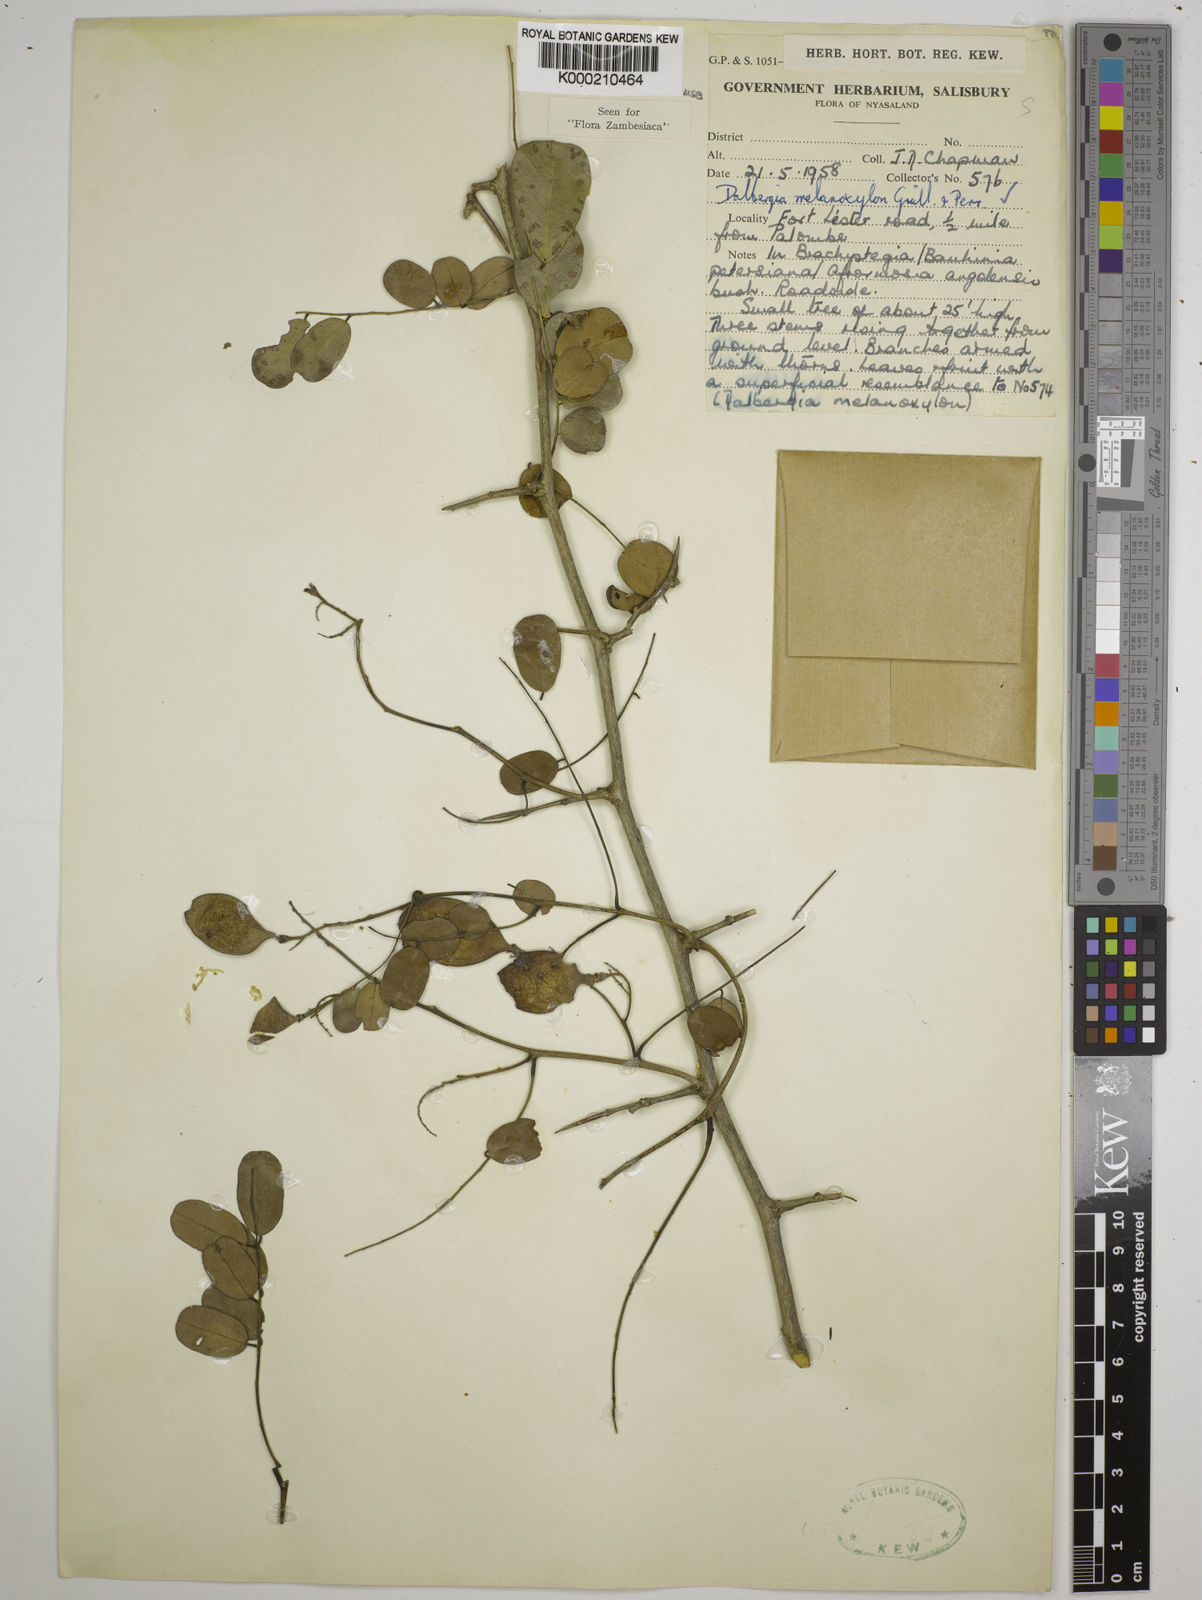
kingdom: Plantae
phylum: Tracheophyta
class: Magnoliopsida
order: Fabales
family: Fabaceae
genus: Dalbergia
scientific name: Dalbergia melanoxylon
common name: African blackwood
